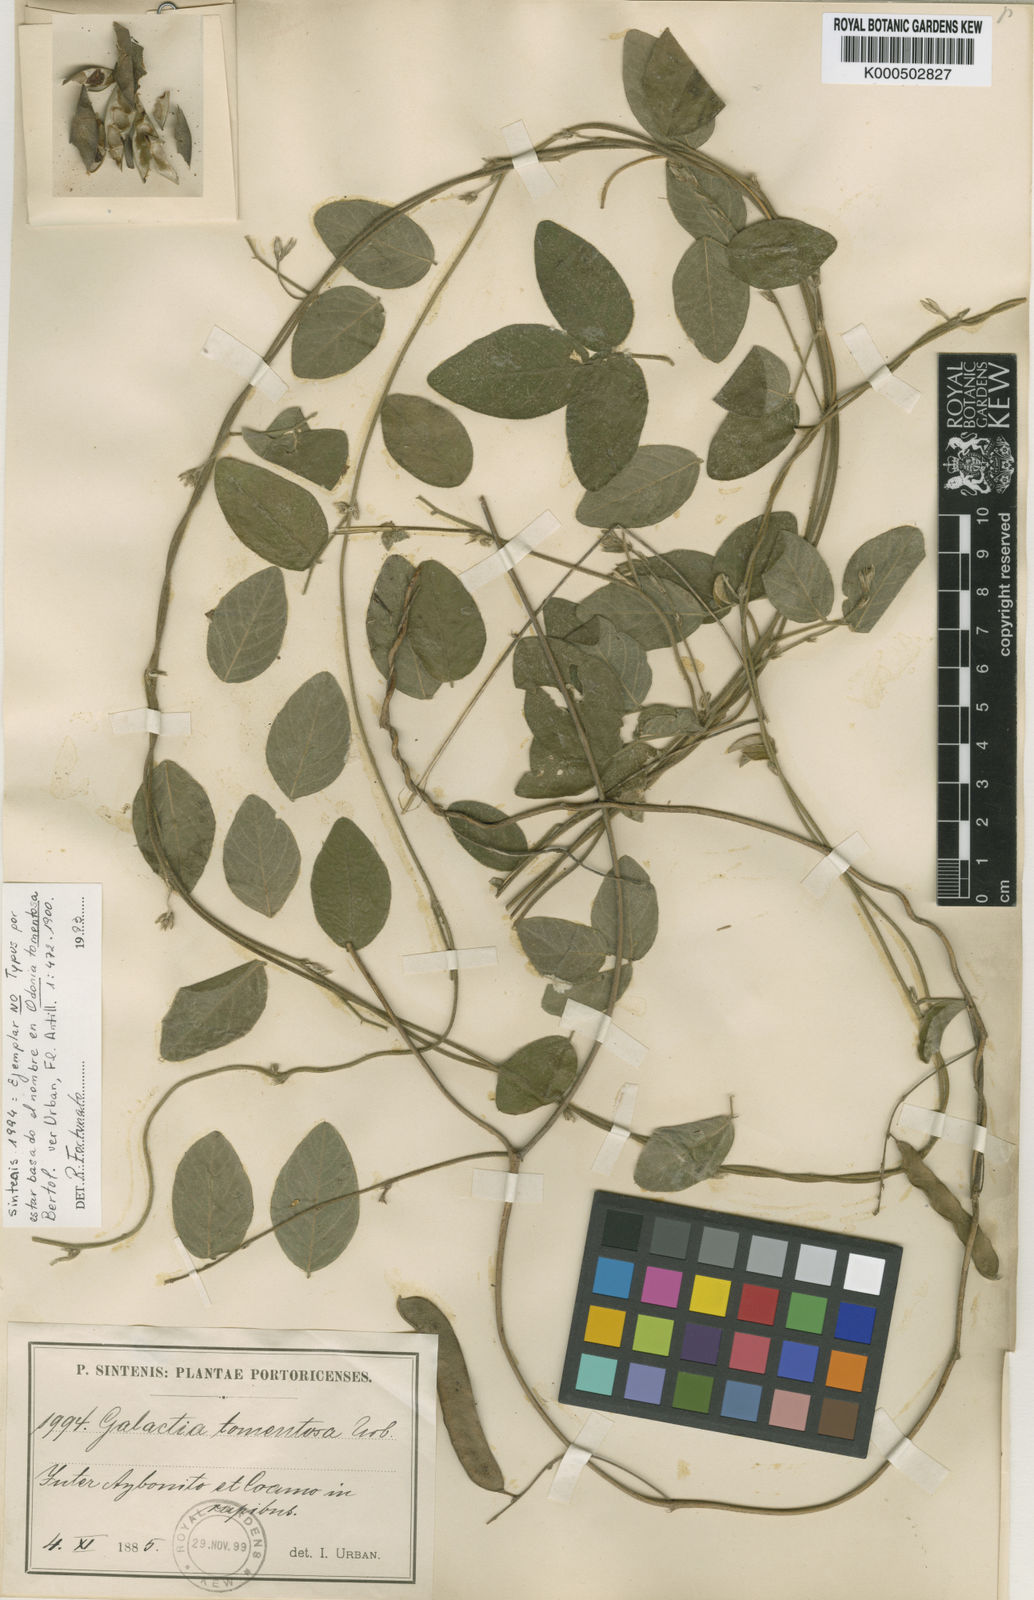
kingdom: Plantae
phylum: Tracheophyta
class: Magnoliopsida
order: Fabales
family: Fabaceae
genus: Galactia
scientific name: Galactia striata
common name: Florida hammock milkpea
